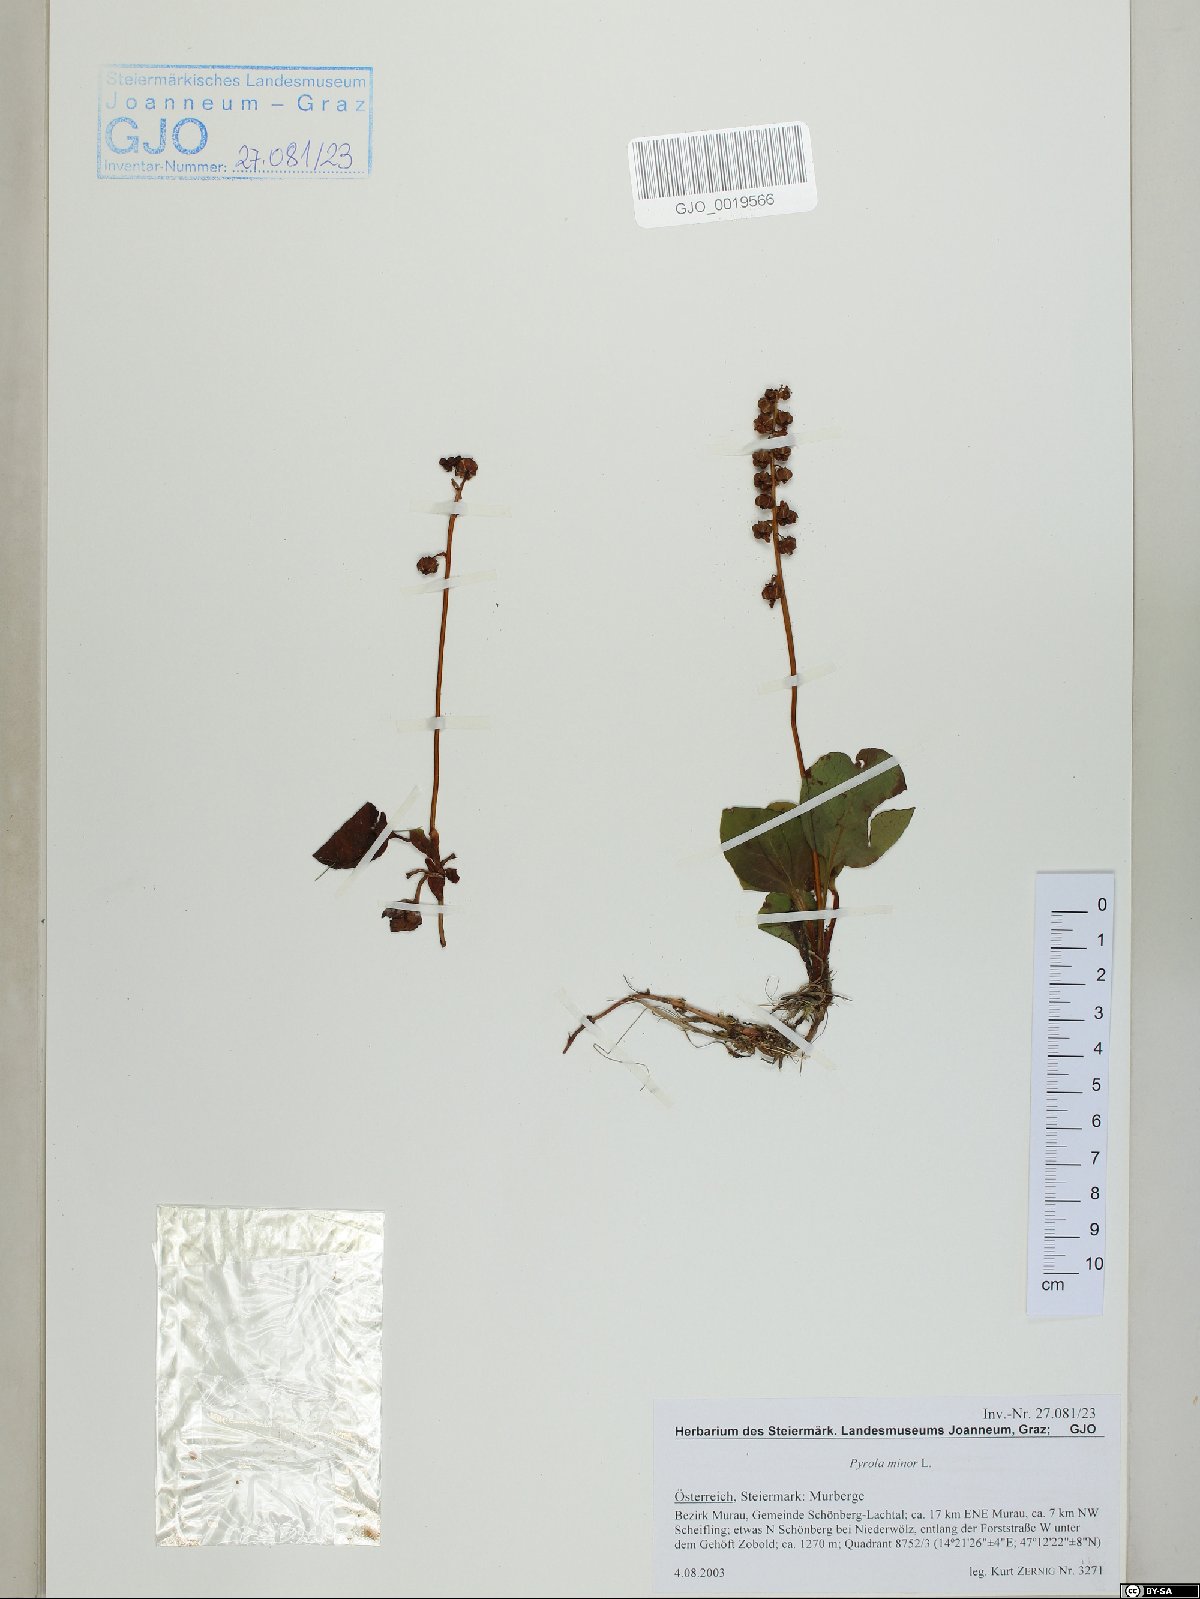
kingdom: Plantae
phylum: Tracheophyta
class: Magnoliopsida
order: Ericales
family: Ericaceae
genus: Pyrola
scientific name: Pyrola minor
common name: Common wintergreen
